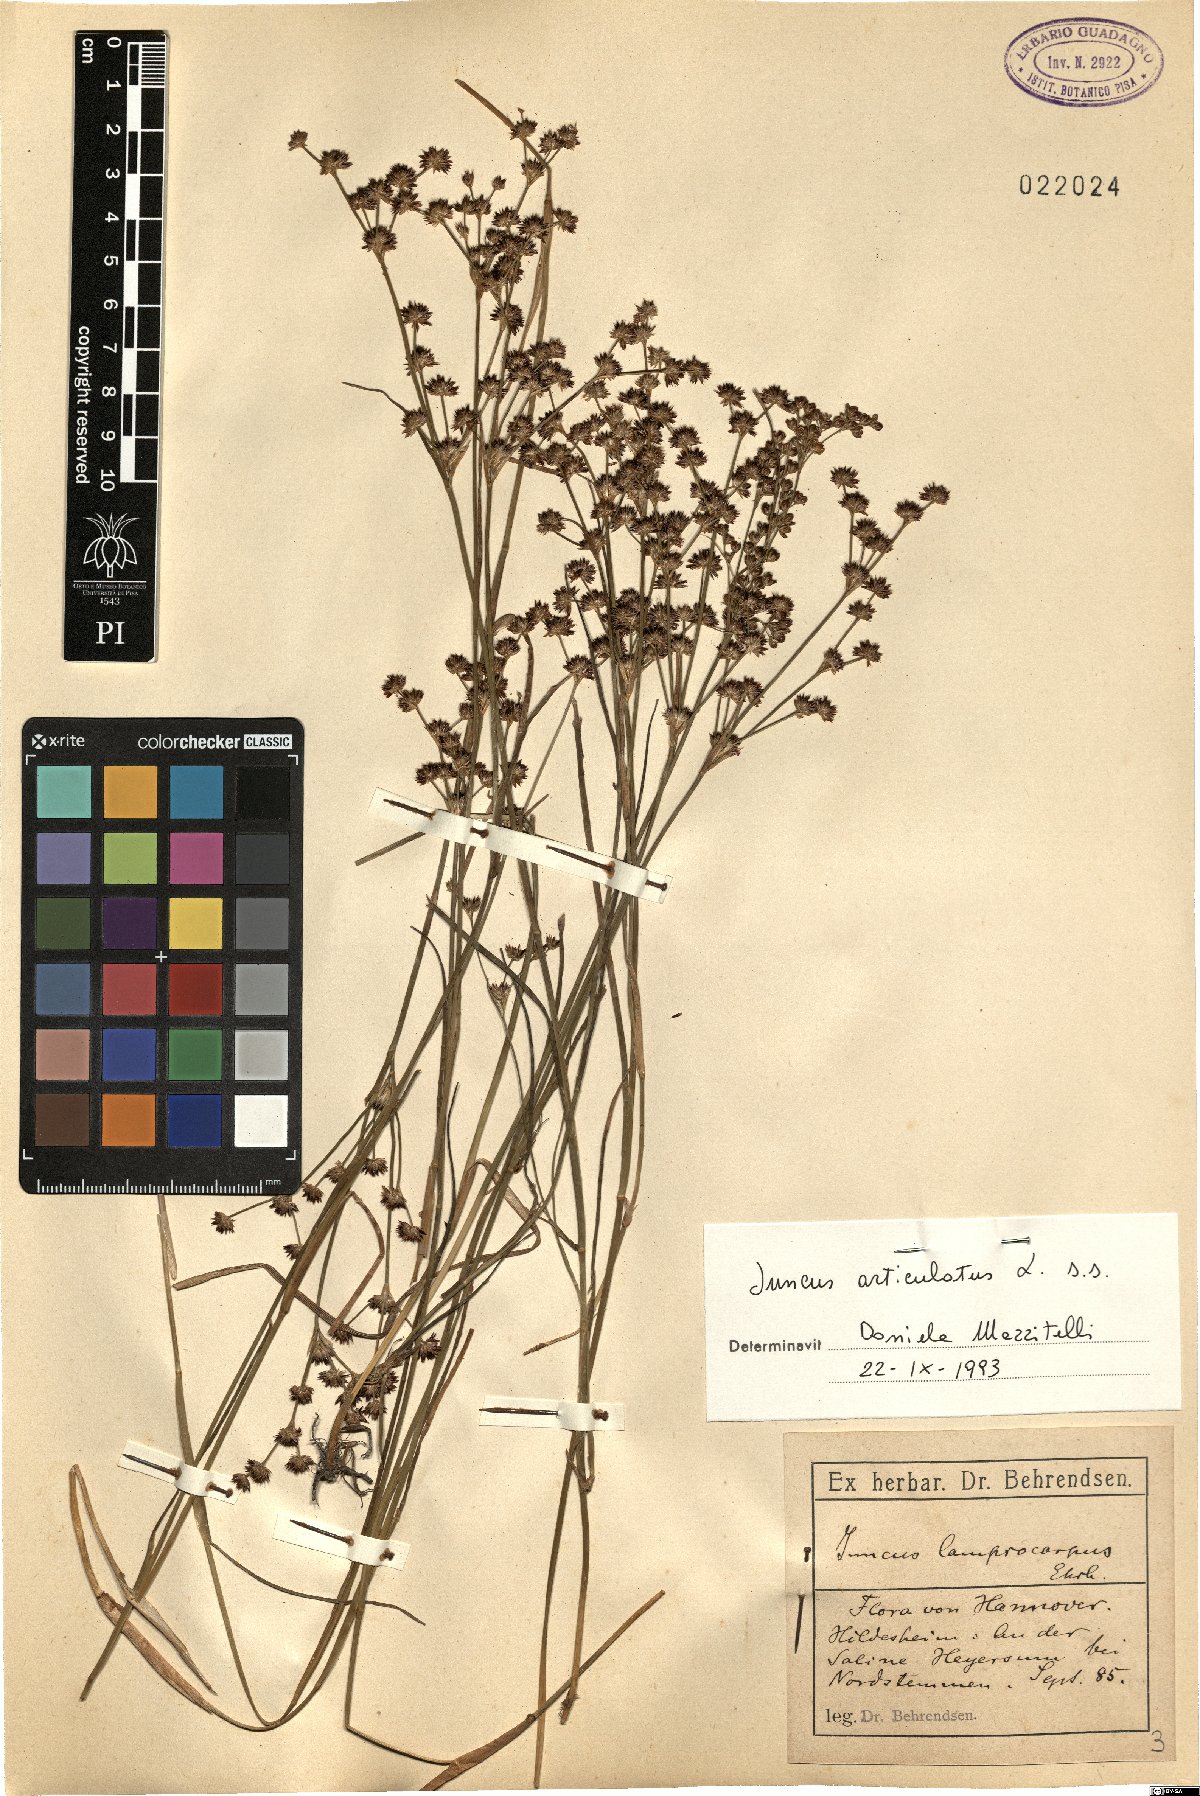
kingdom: Plantae
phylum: Tracheophyta
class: Liliopsida
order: Poales
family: Juncaceae
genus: Juncus
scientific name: Juncus articulatus
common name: Jointed rush
